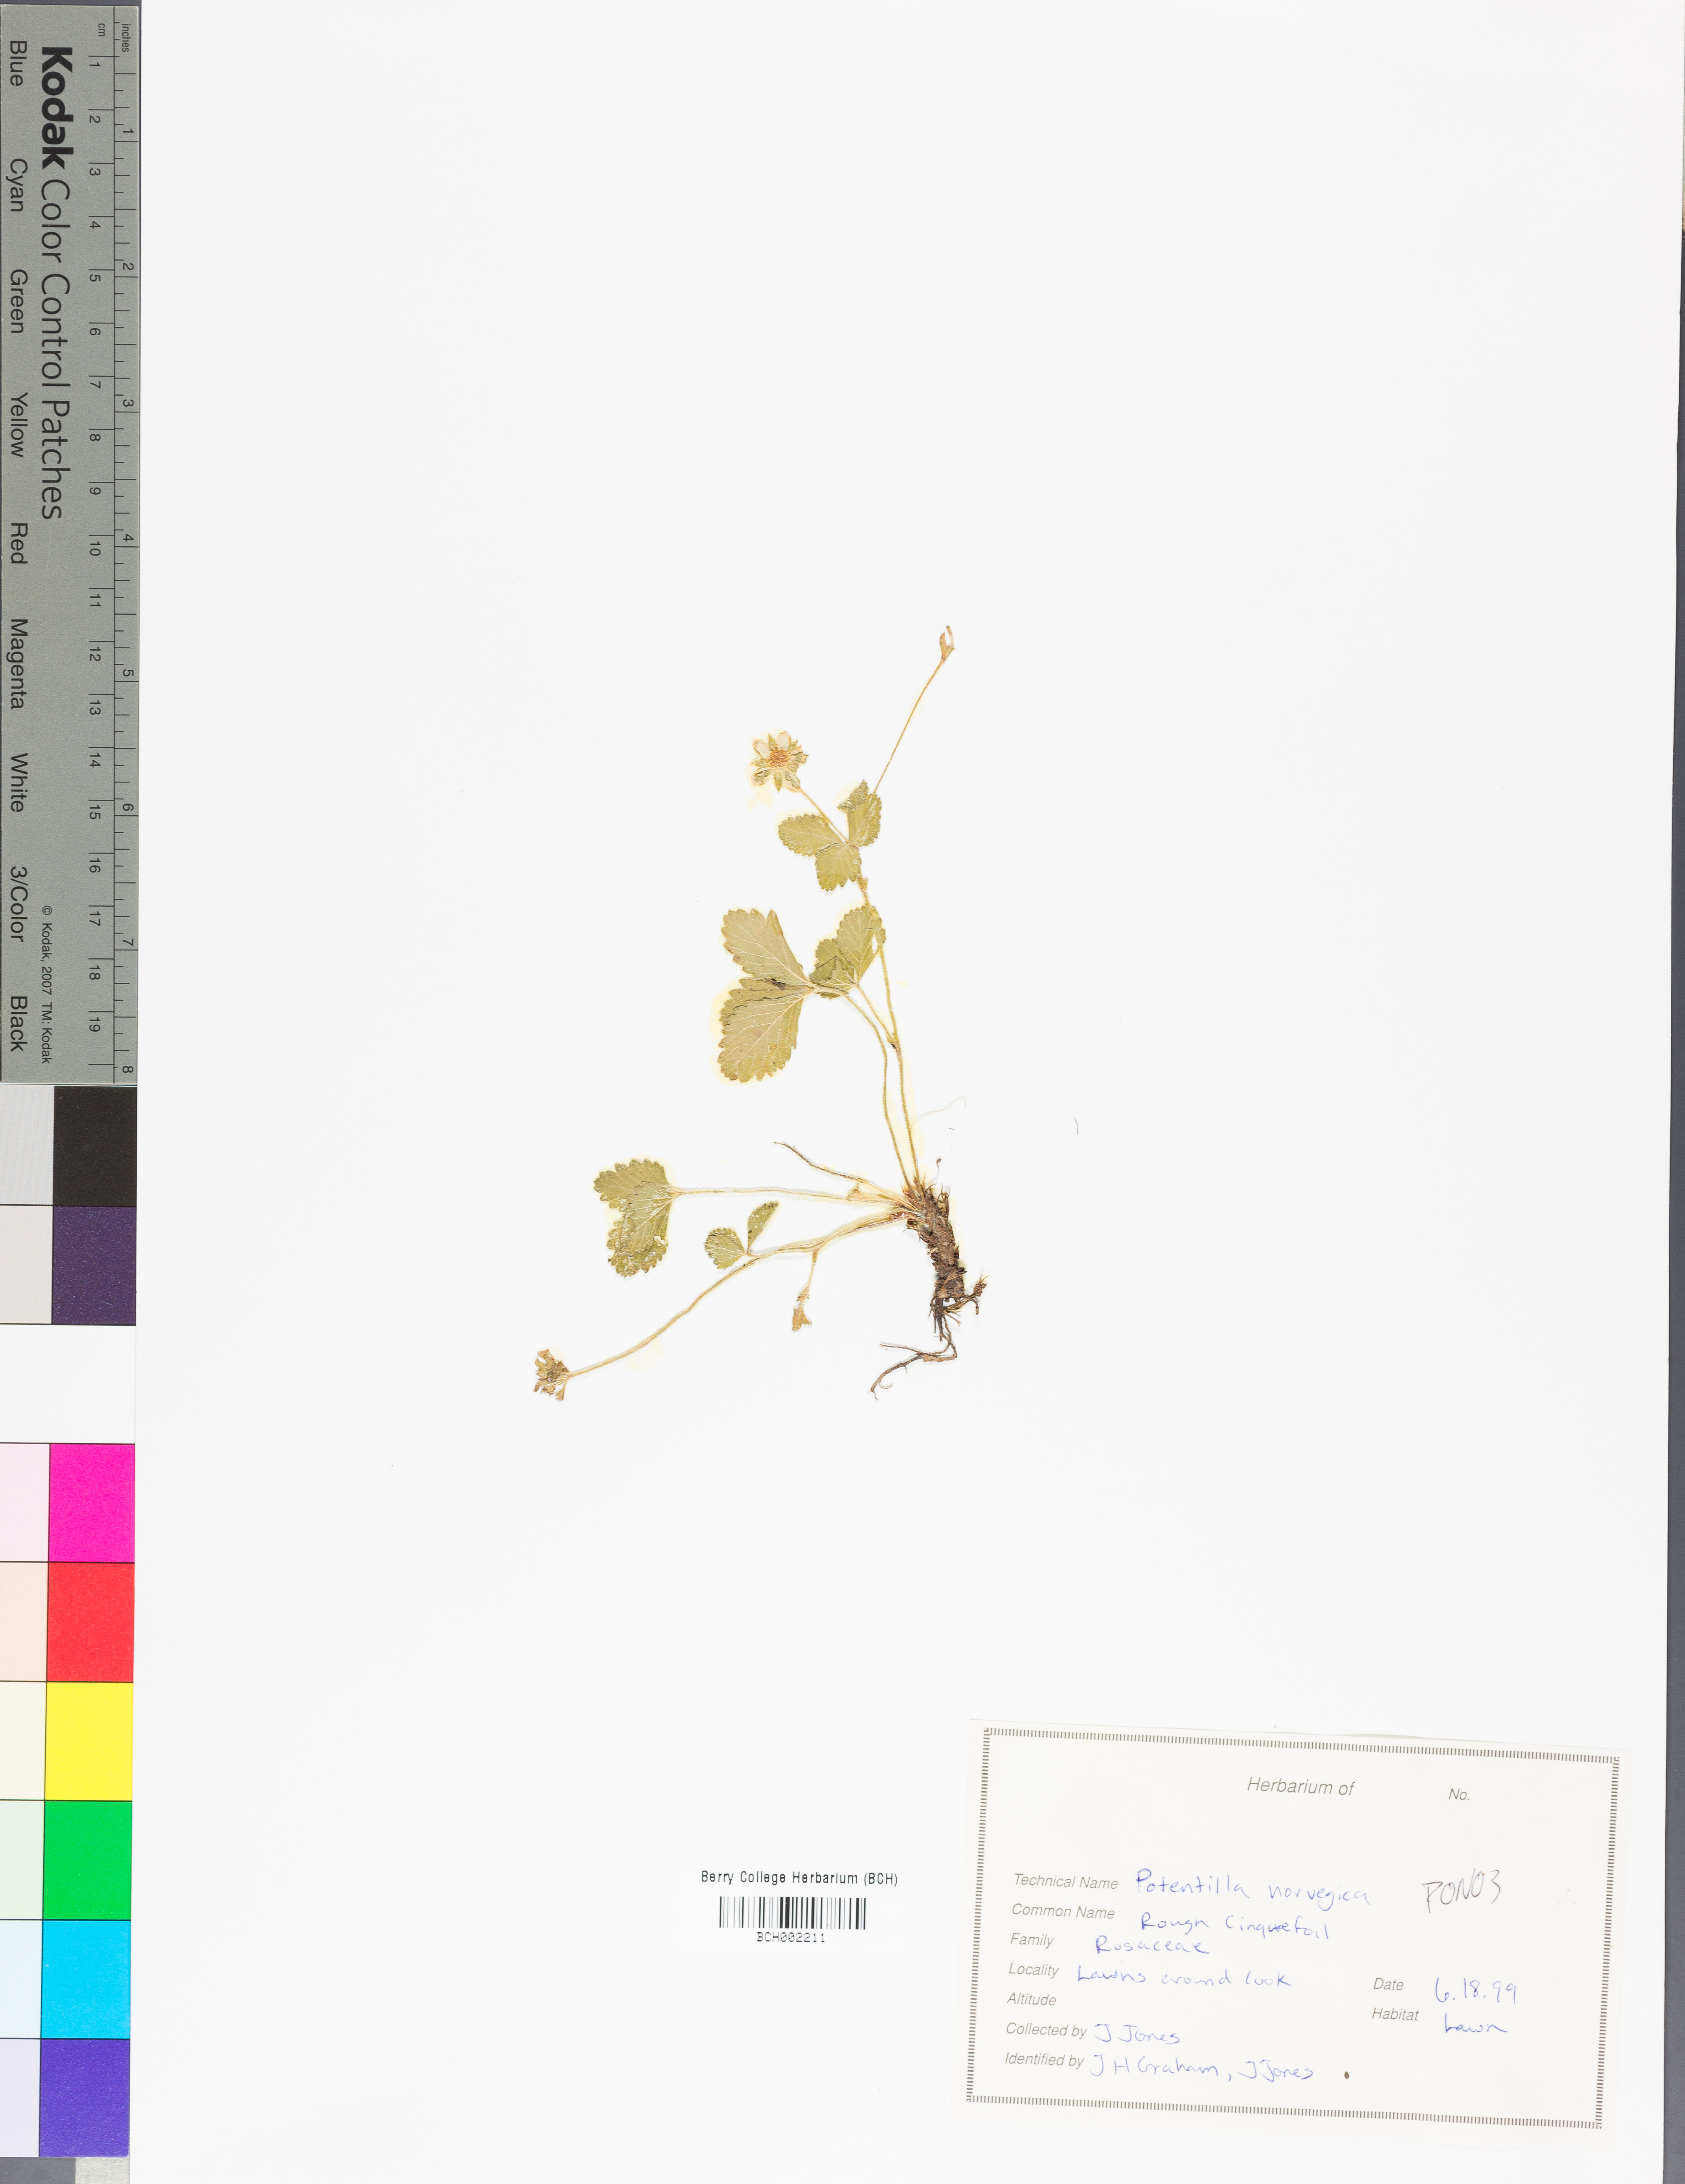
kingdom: Plantae
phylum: Tracheophyta
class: Magnoliopsida
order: Rosales
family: Rosaceae
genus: Potentilla
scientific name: Potentilla norvegica
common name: Ternate-leaved cinquefoil
